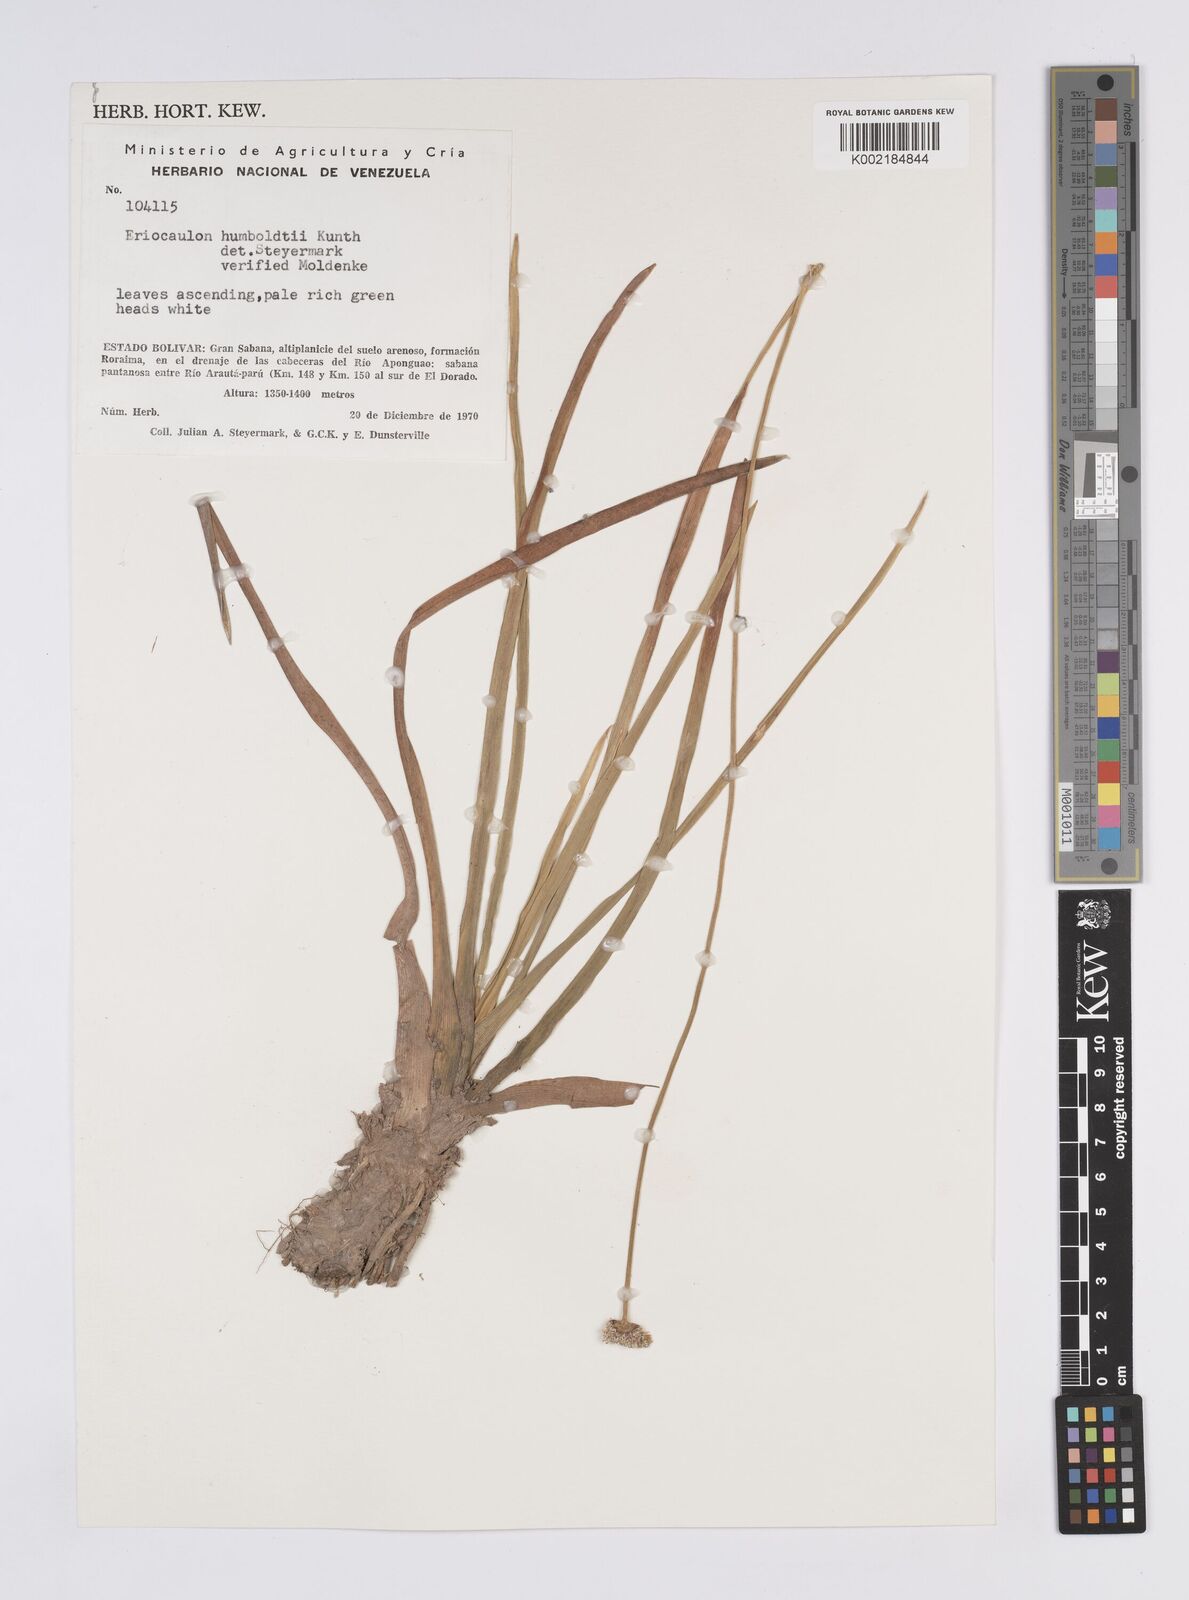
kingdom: Plantae
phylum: Tracheophyta
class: Liliopsida
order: Poales
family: Eriocaulaceae
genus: Eriocaulon
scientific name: Eriocaulon humboldtii
